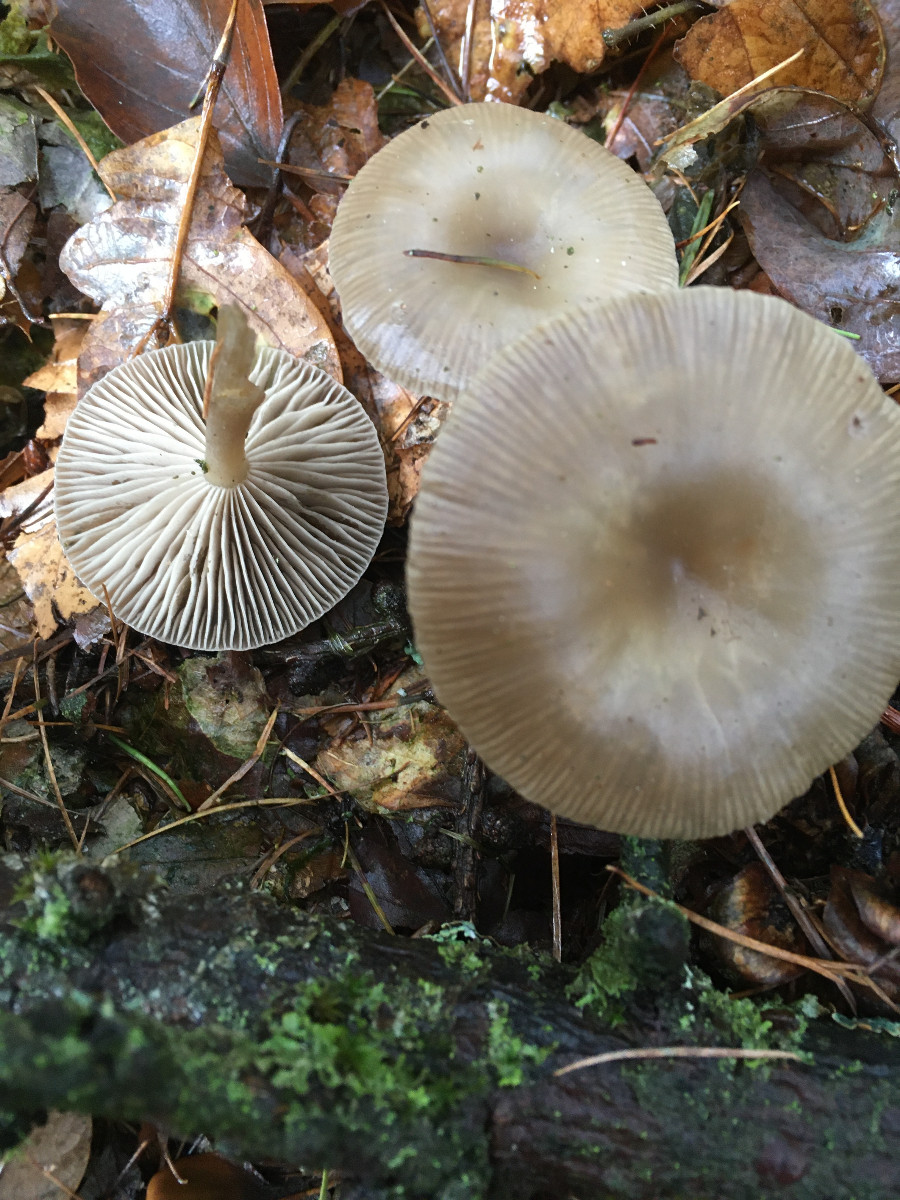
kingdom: Fungi
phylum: Basidiomycota
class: Agaricomycetes
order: Agaricales
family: Tricholomataceae
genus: Clitocybe
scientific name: Clitocybe
